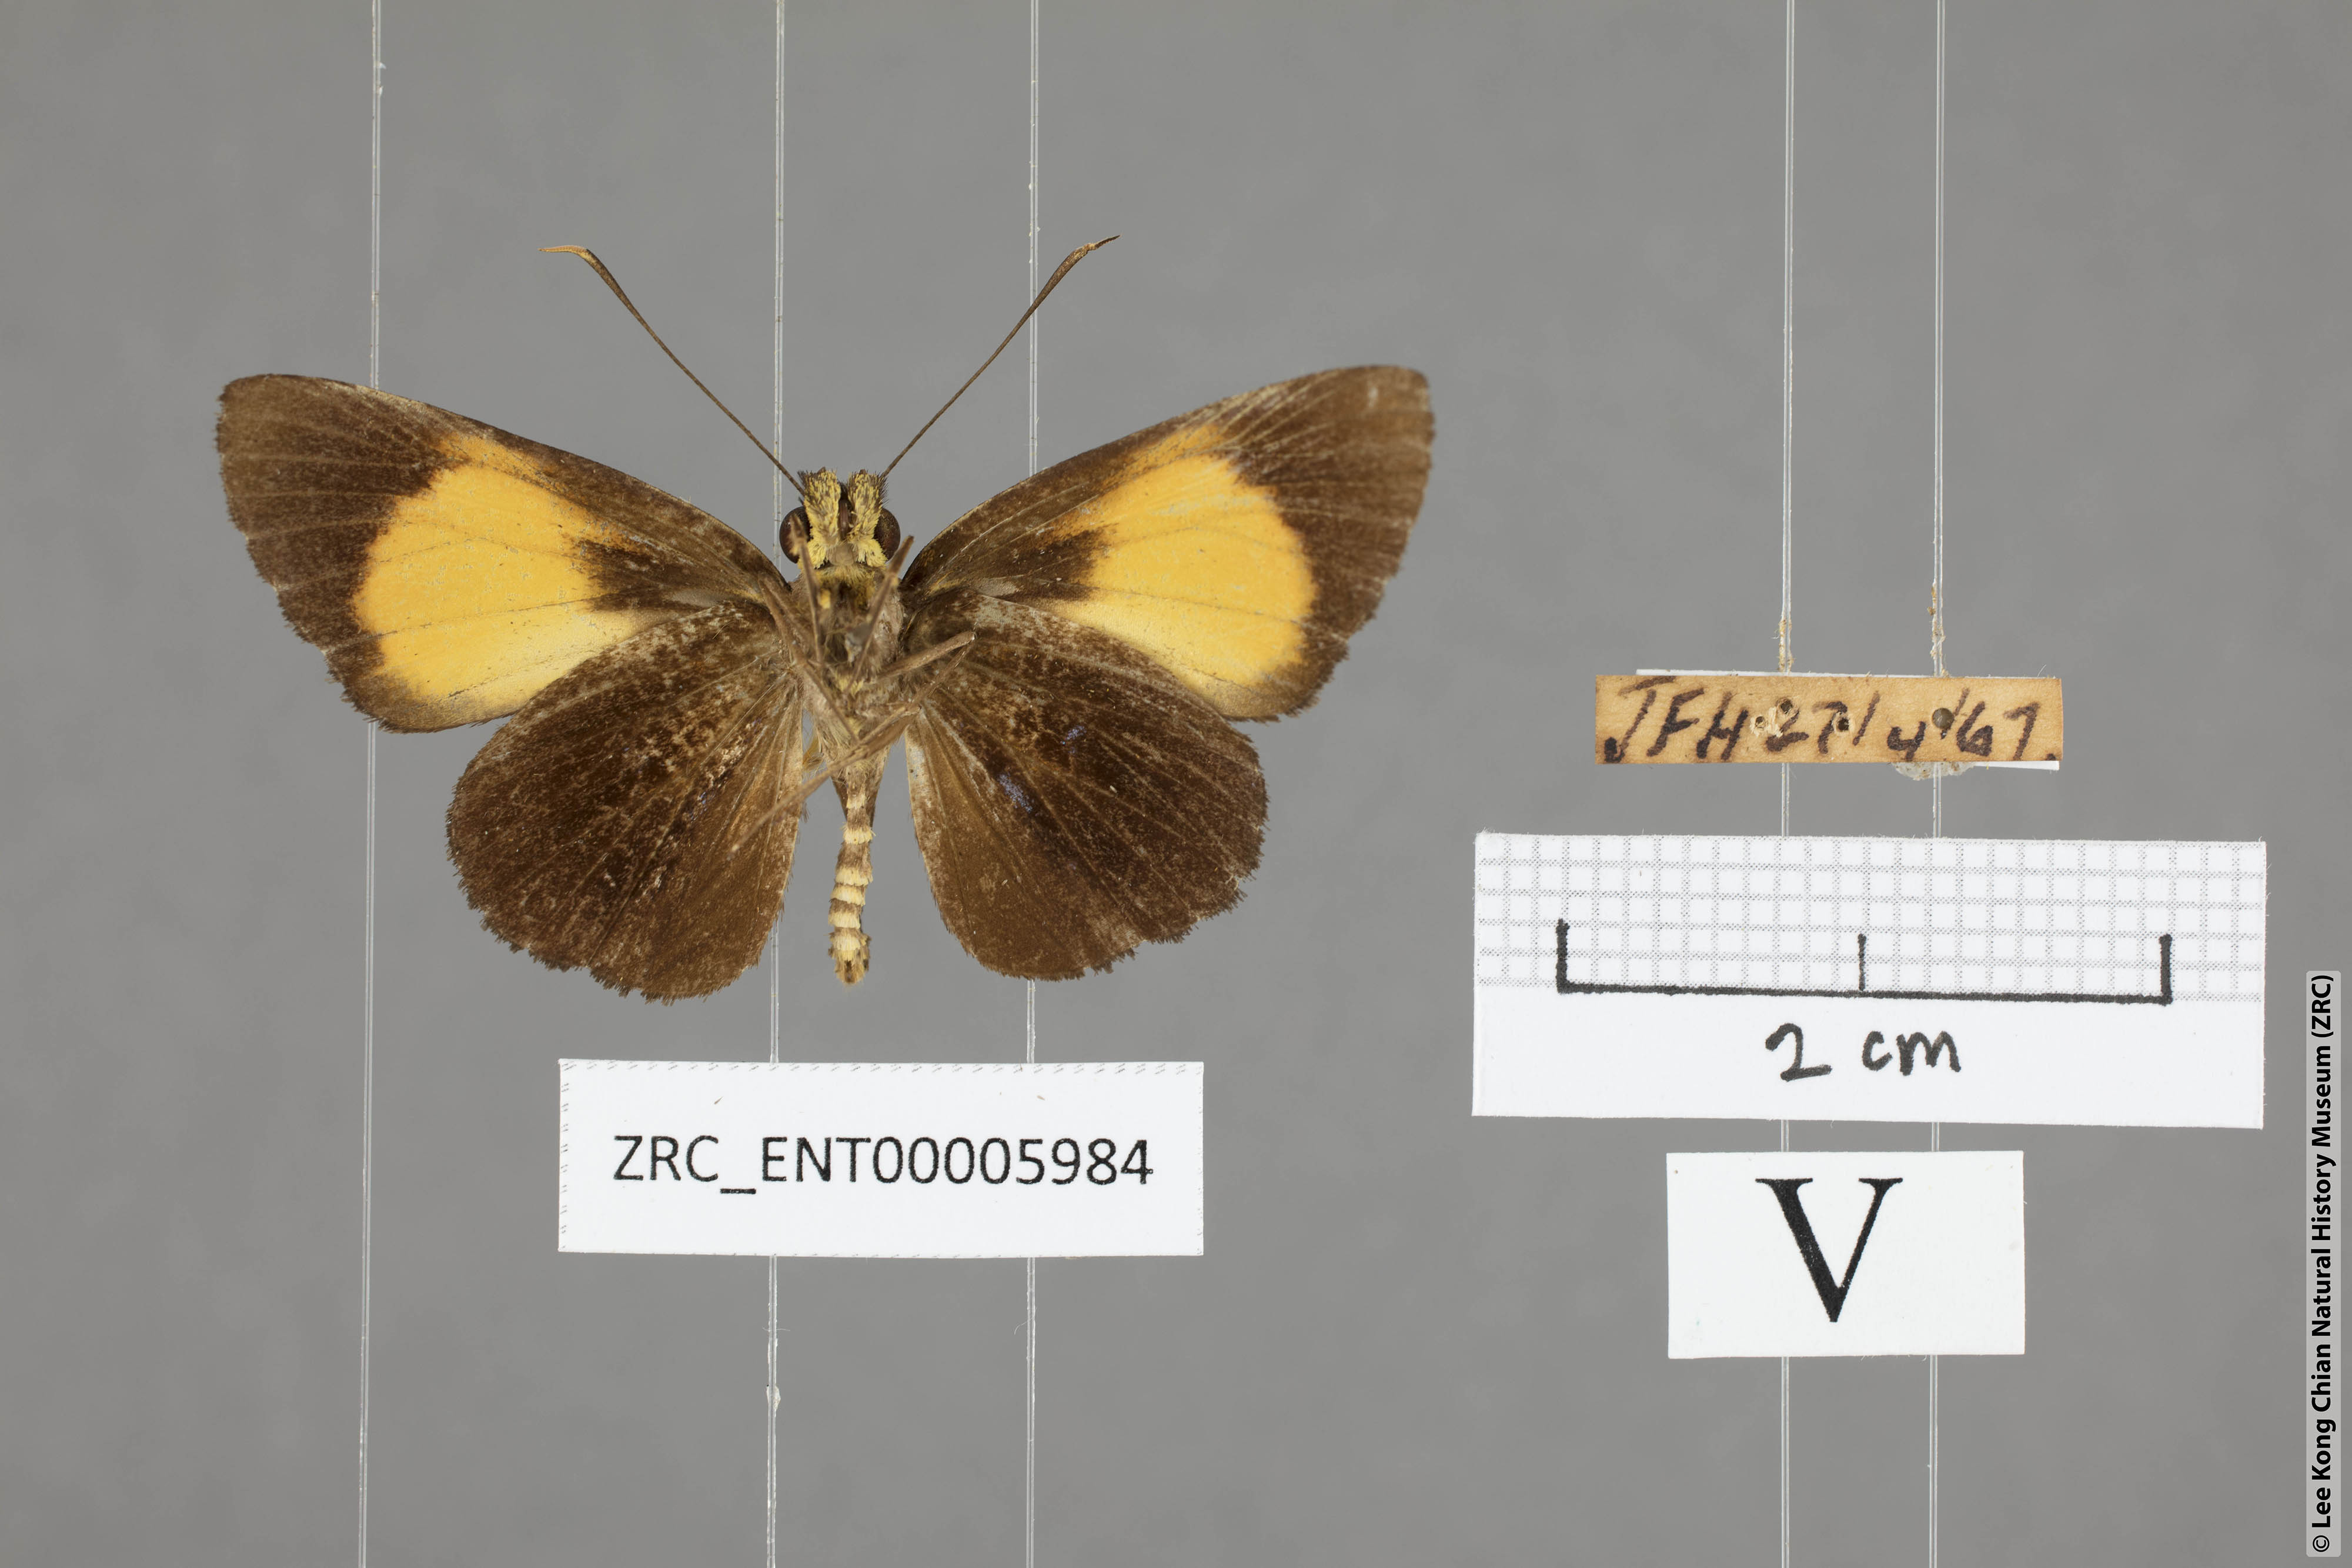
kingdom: Animalia
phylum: Arthropoda
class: Insecta
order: Lepidoptera
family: Hesperiidae
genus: Pseudokerana
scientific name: Pseudokerana fulgur
